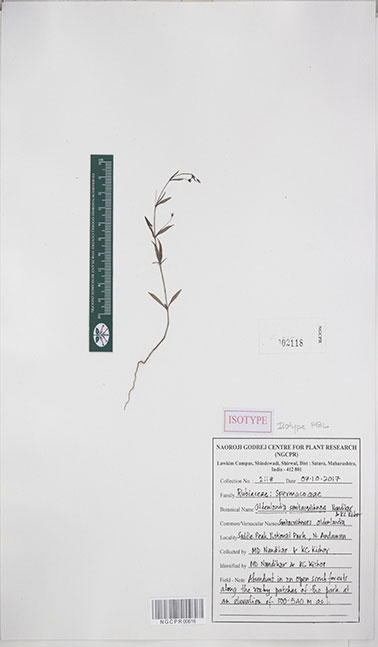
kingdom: Plantae
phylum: Tracheophyta
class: Magnoliopsida
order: Gentianales
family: Rubiaceae
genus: Oldenlandia
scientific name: Oldenlandia smitacrishnae
